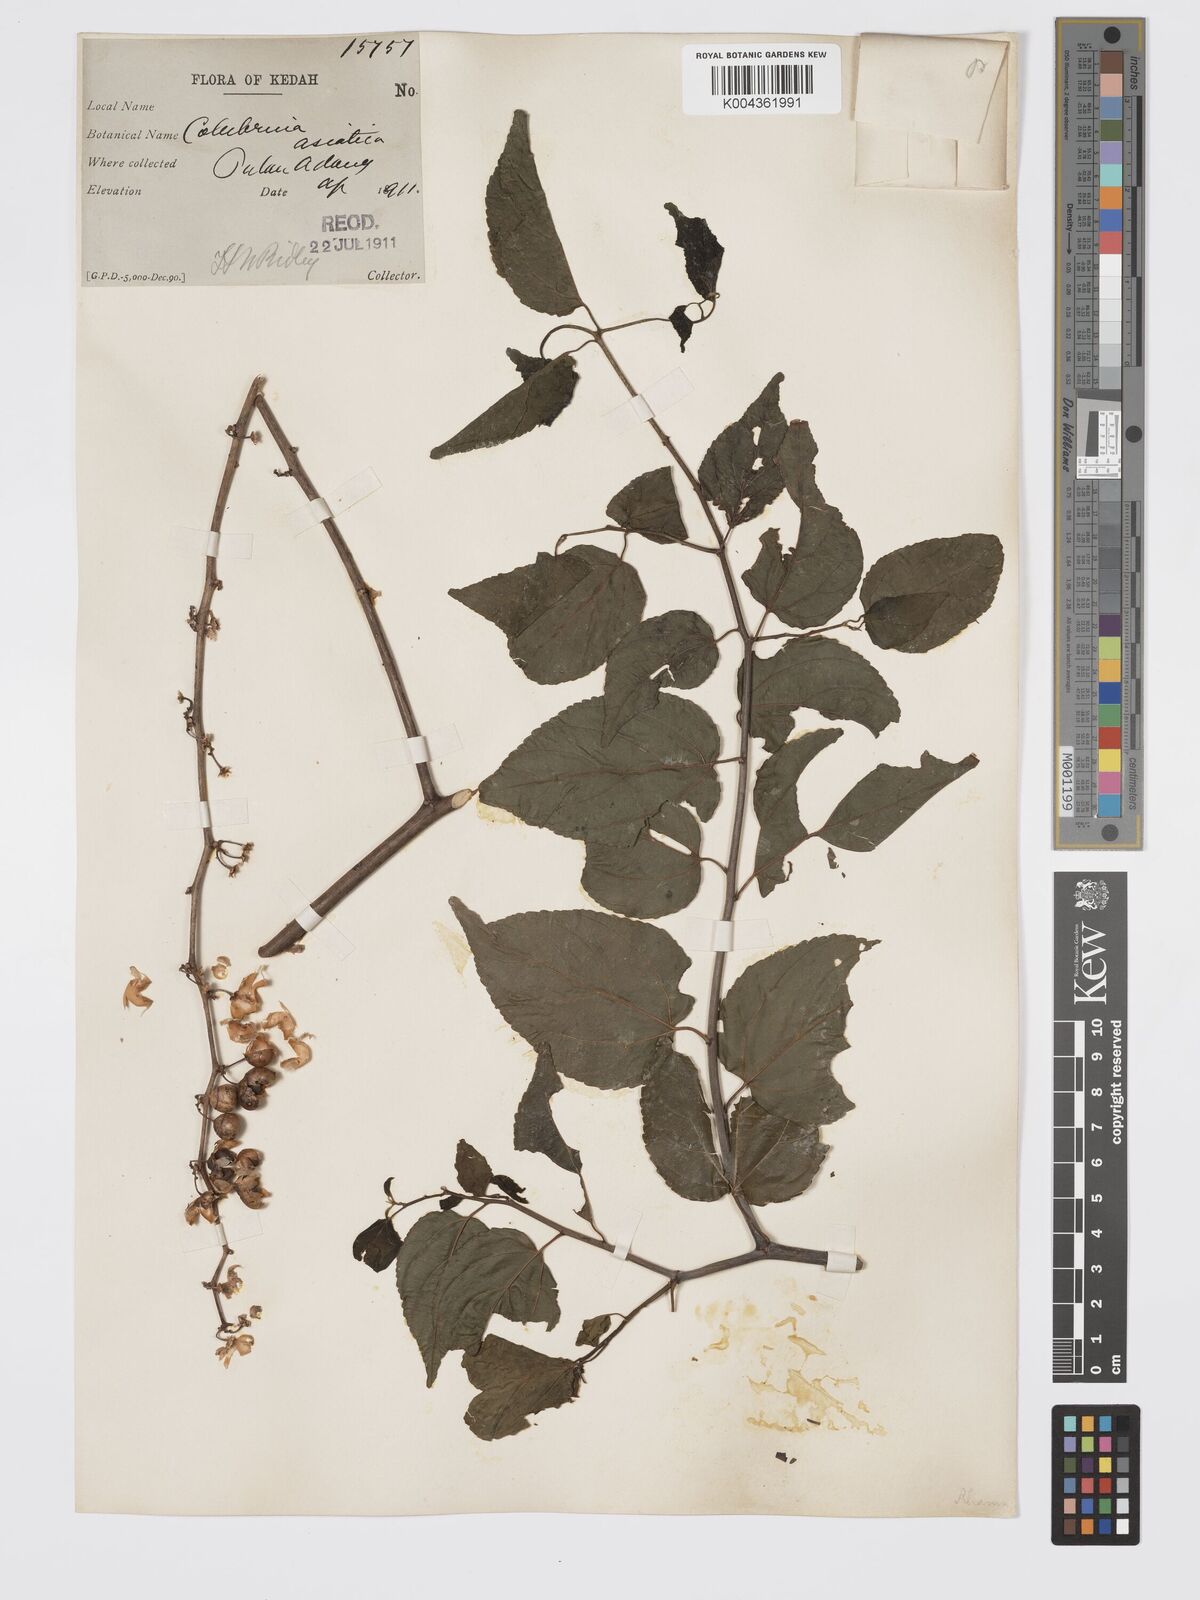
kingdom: Plantae
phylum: Tracheophyta
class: Magnoliopsida
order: Rosales
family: Rhamnaceae
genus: Colubrina
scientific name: Colubrina asiatica
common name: Asian nakedwood
